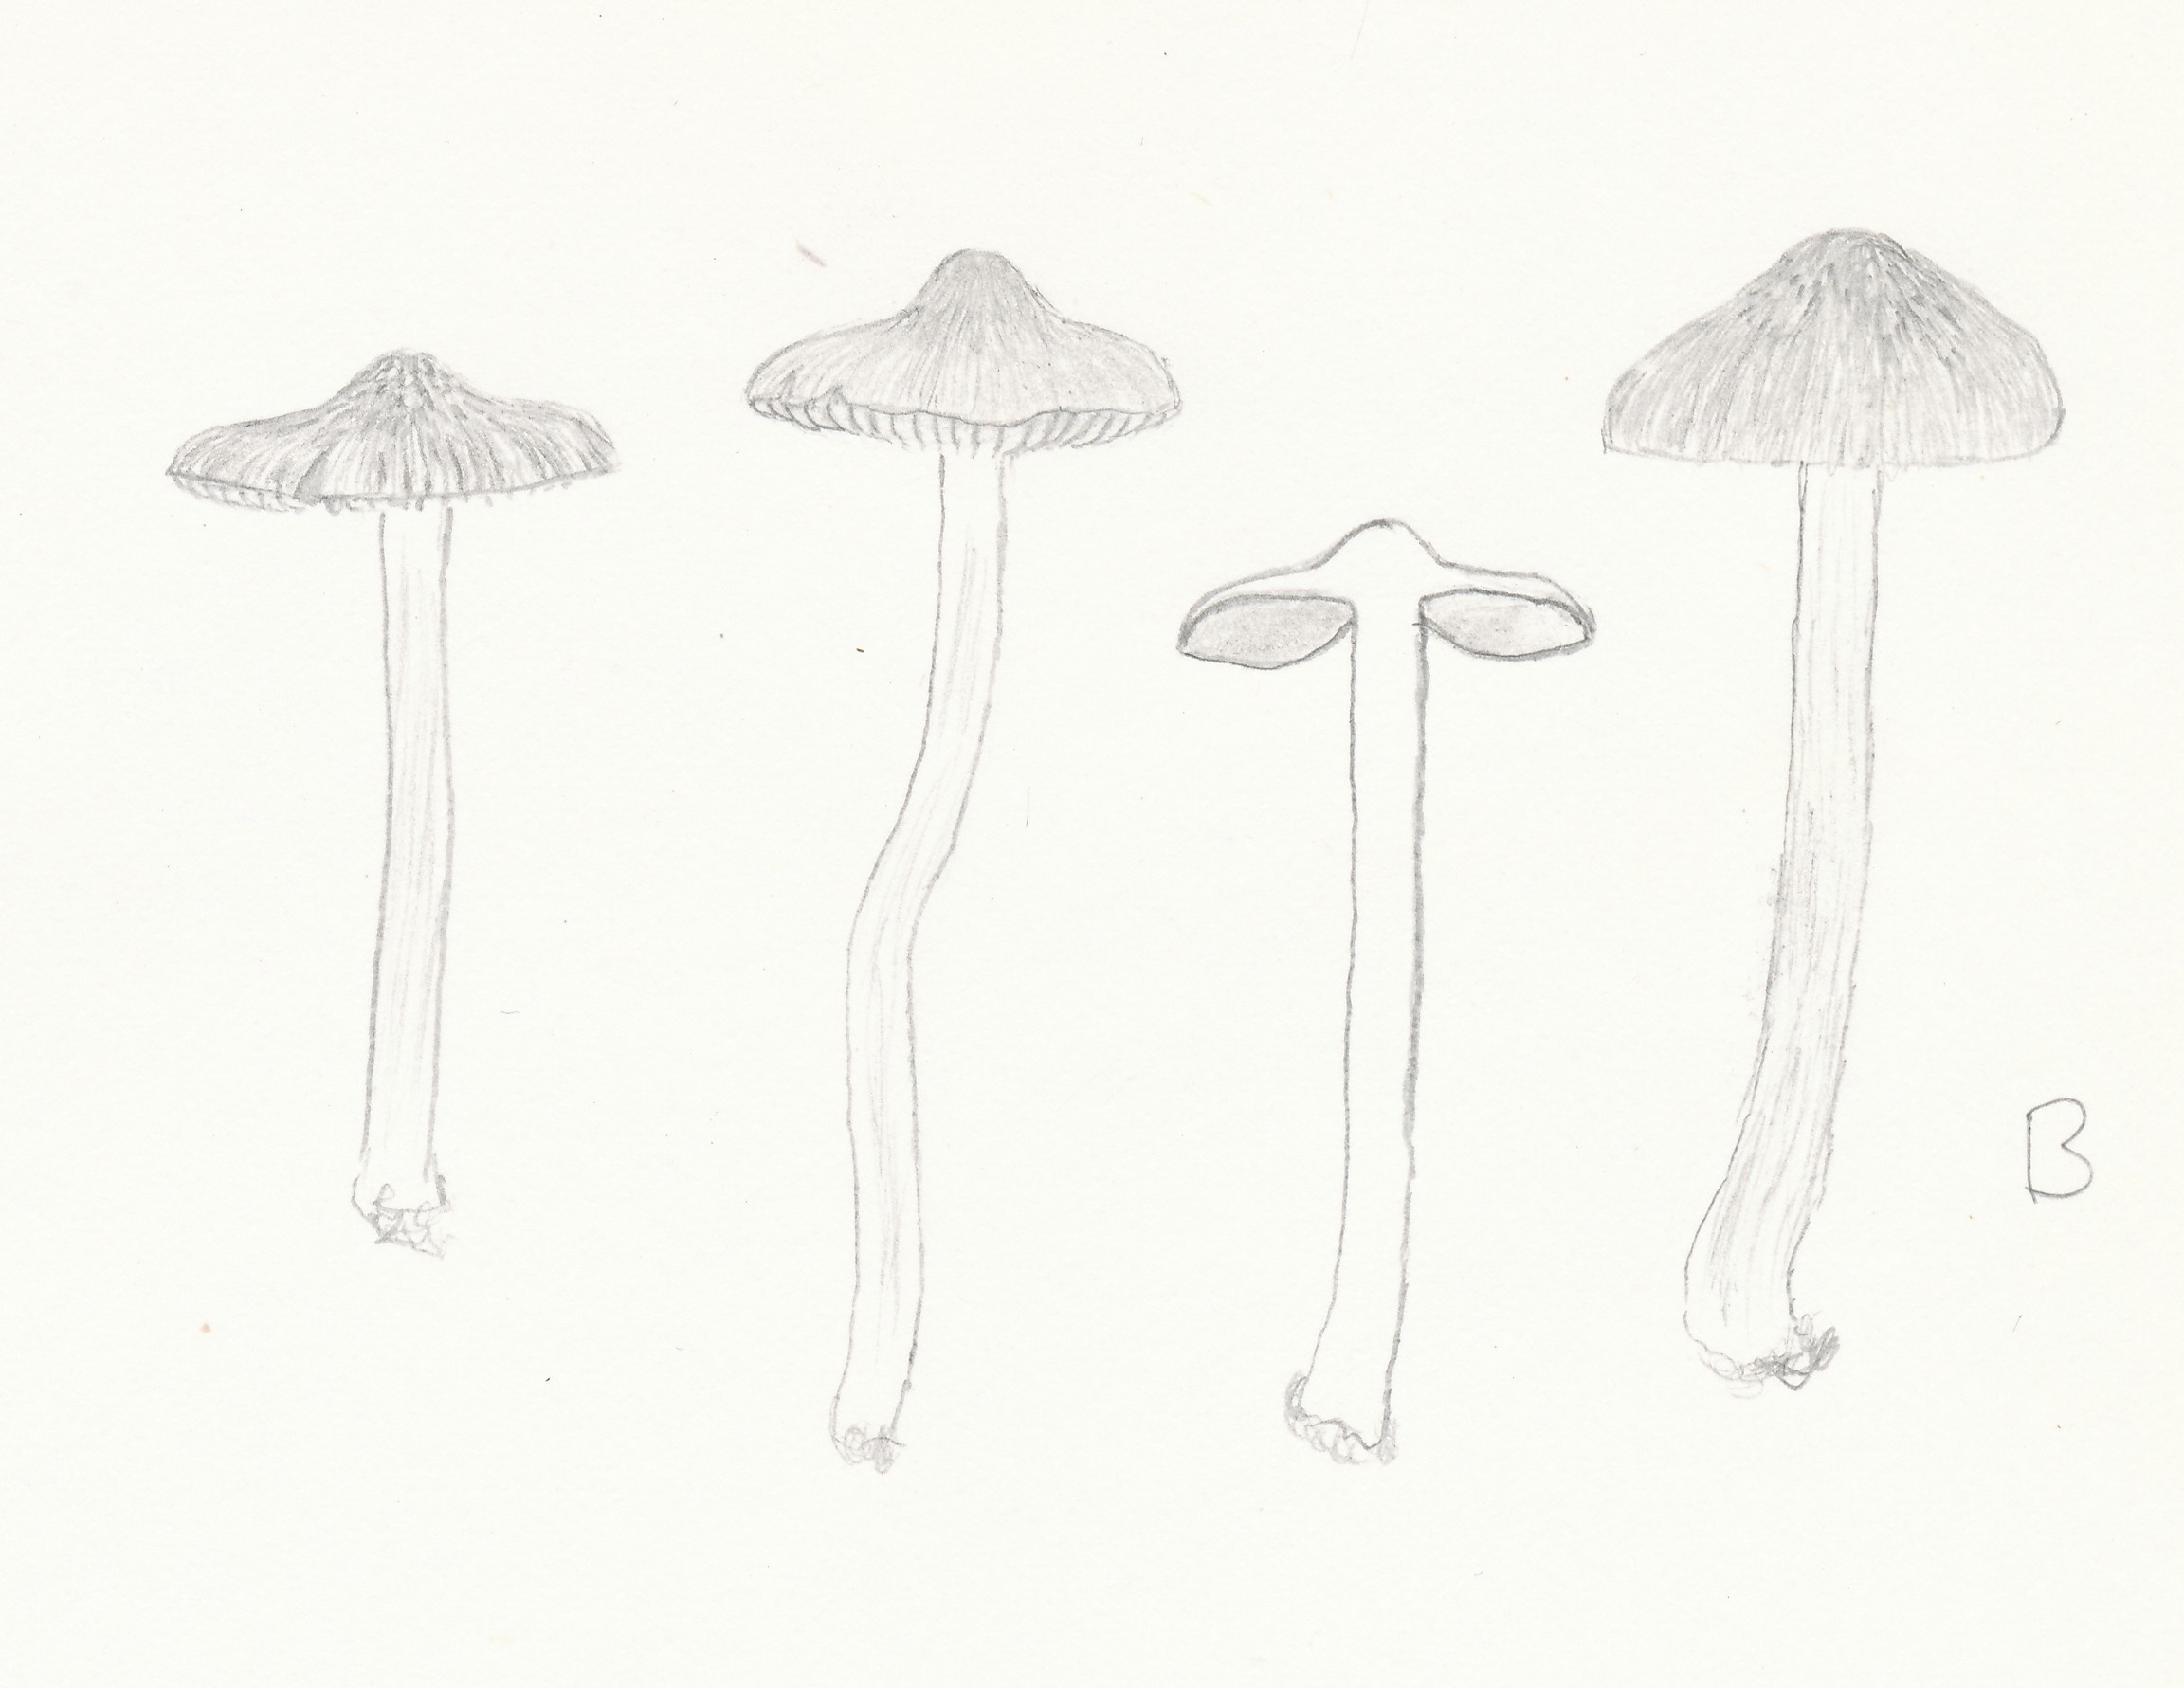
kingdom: Fungi
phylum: Basidiomycota
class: Agaricomycetes
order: Agaricales
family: Inocybaceae
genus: Inocybe
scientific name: Inocybe curvipes
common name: plæne-trævlhat
